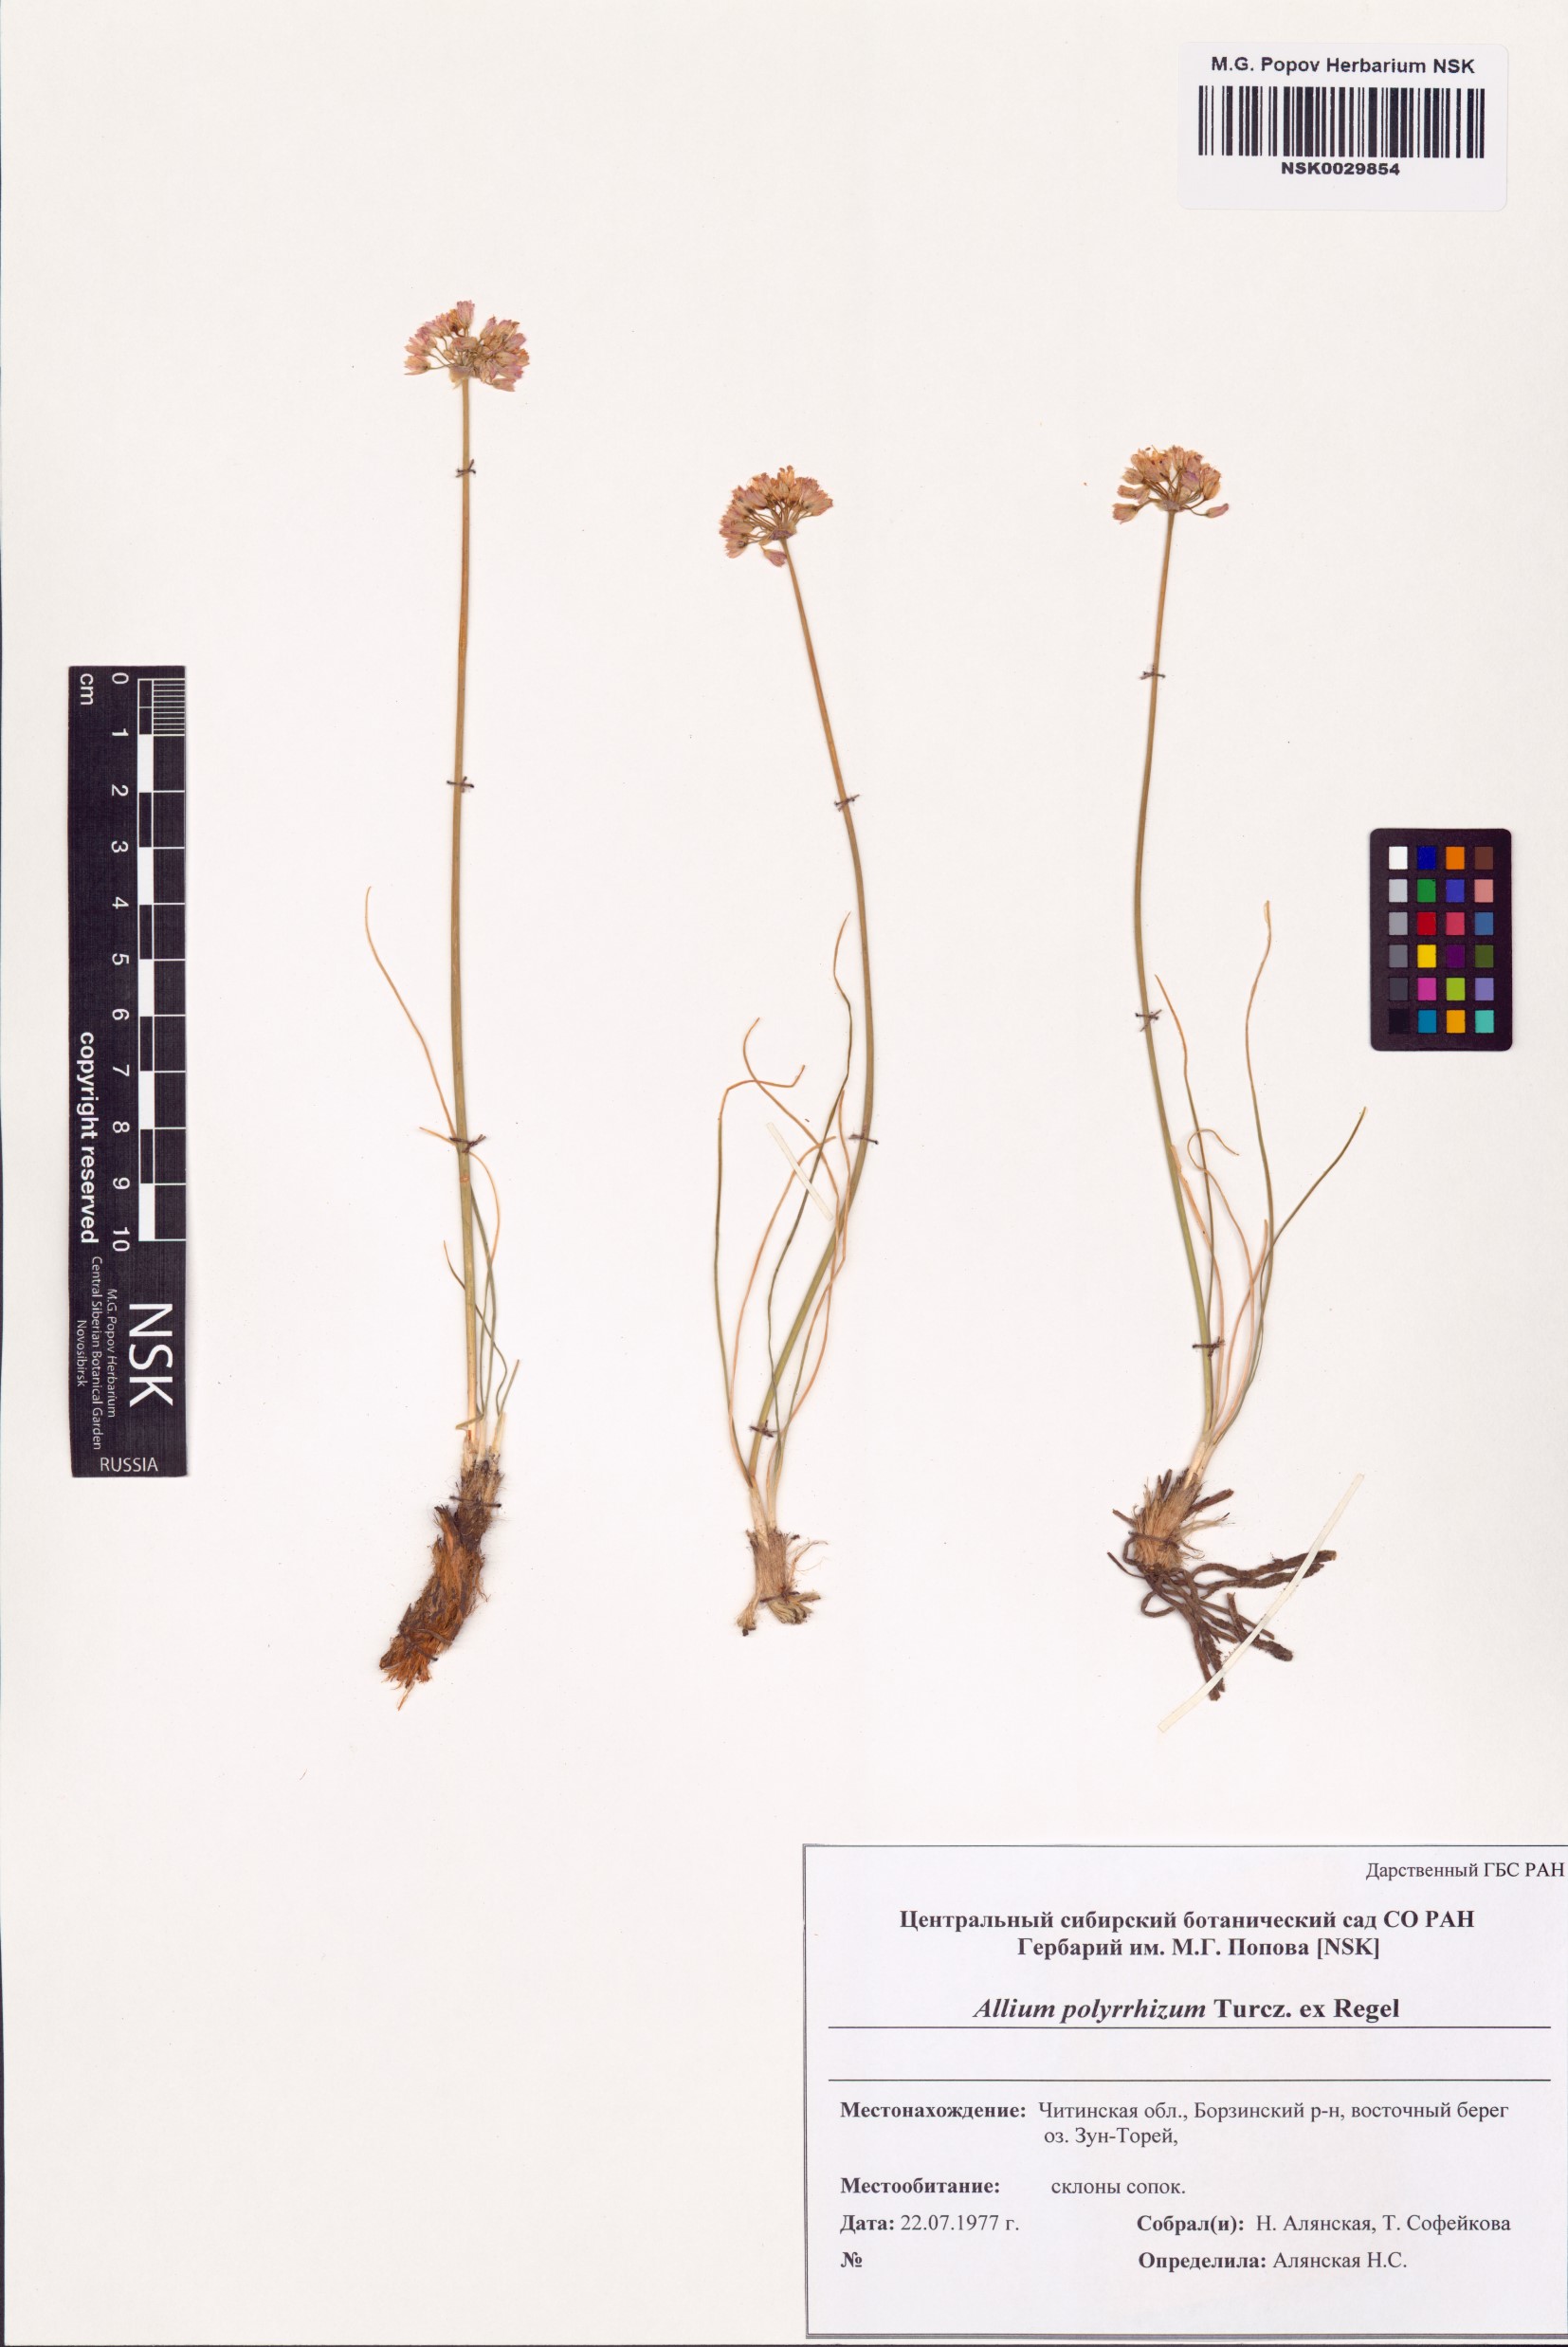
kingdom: Plantae
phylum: Tracheophyta
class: Liliopsida
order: Asparagales
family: Amaryllidaceae
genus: Allium
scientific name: Allium polyrhizum
